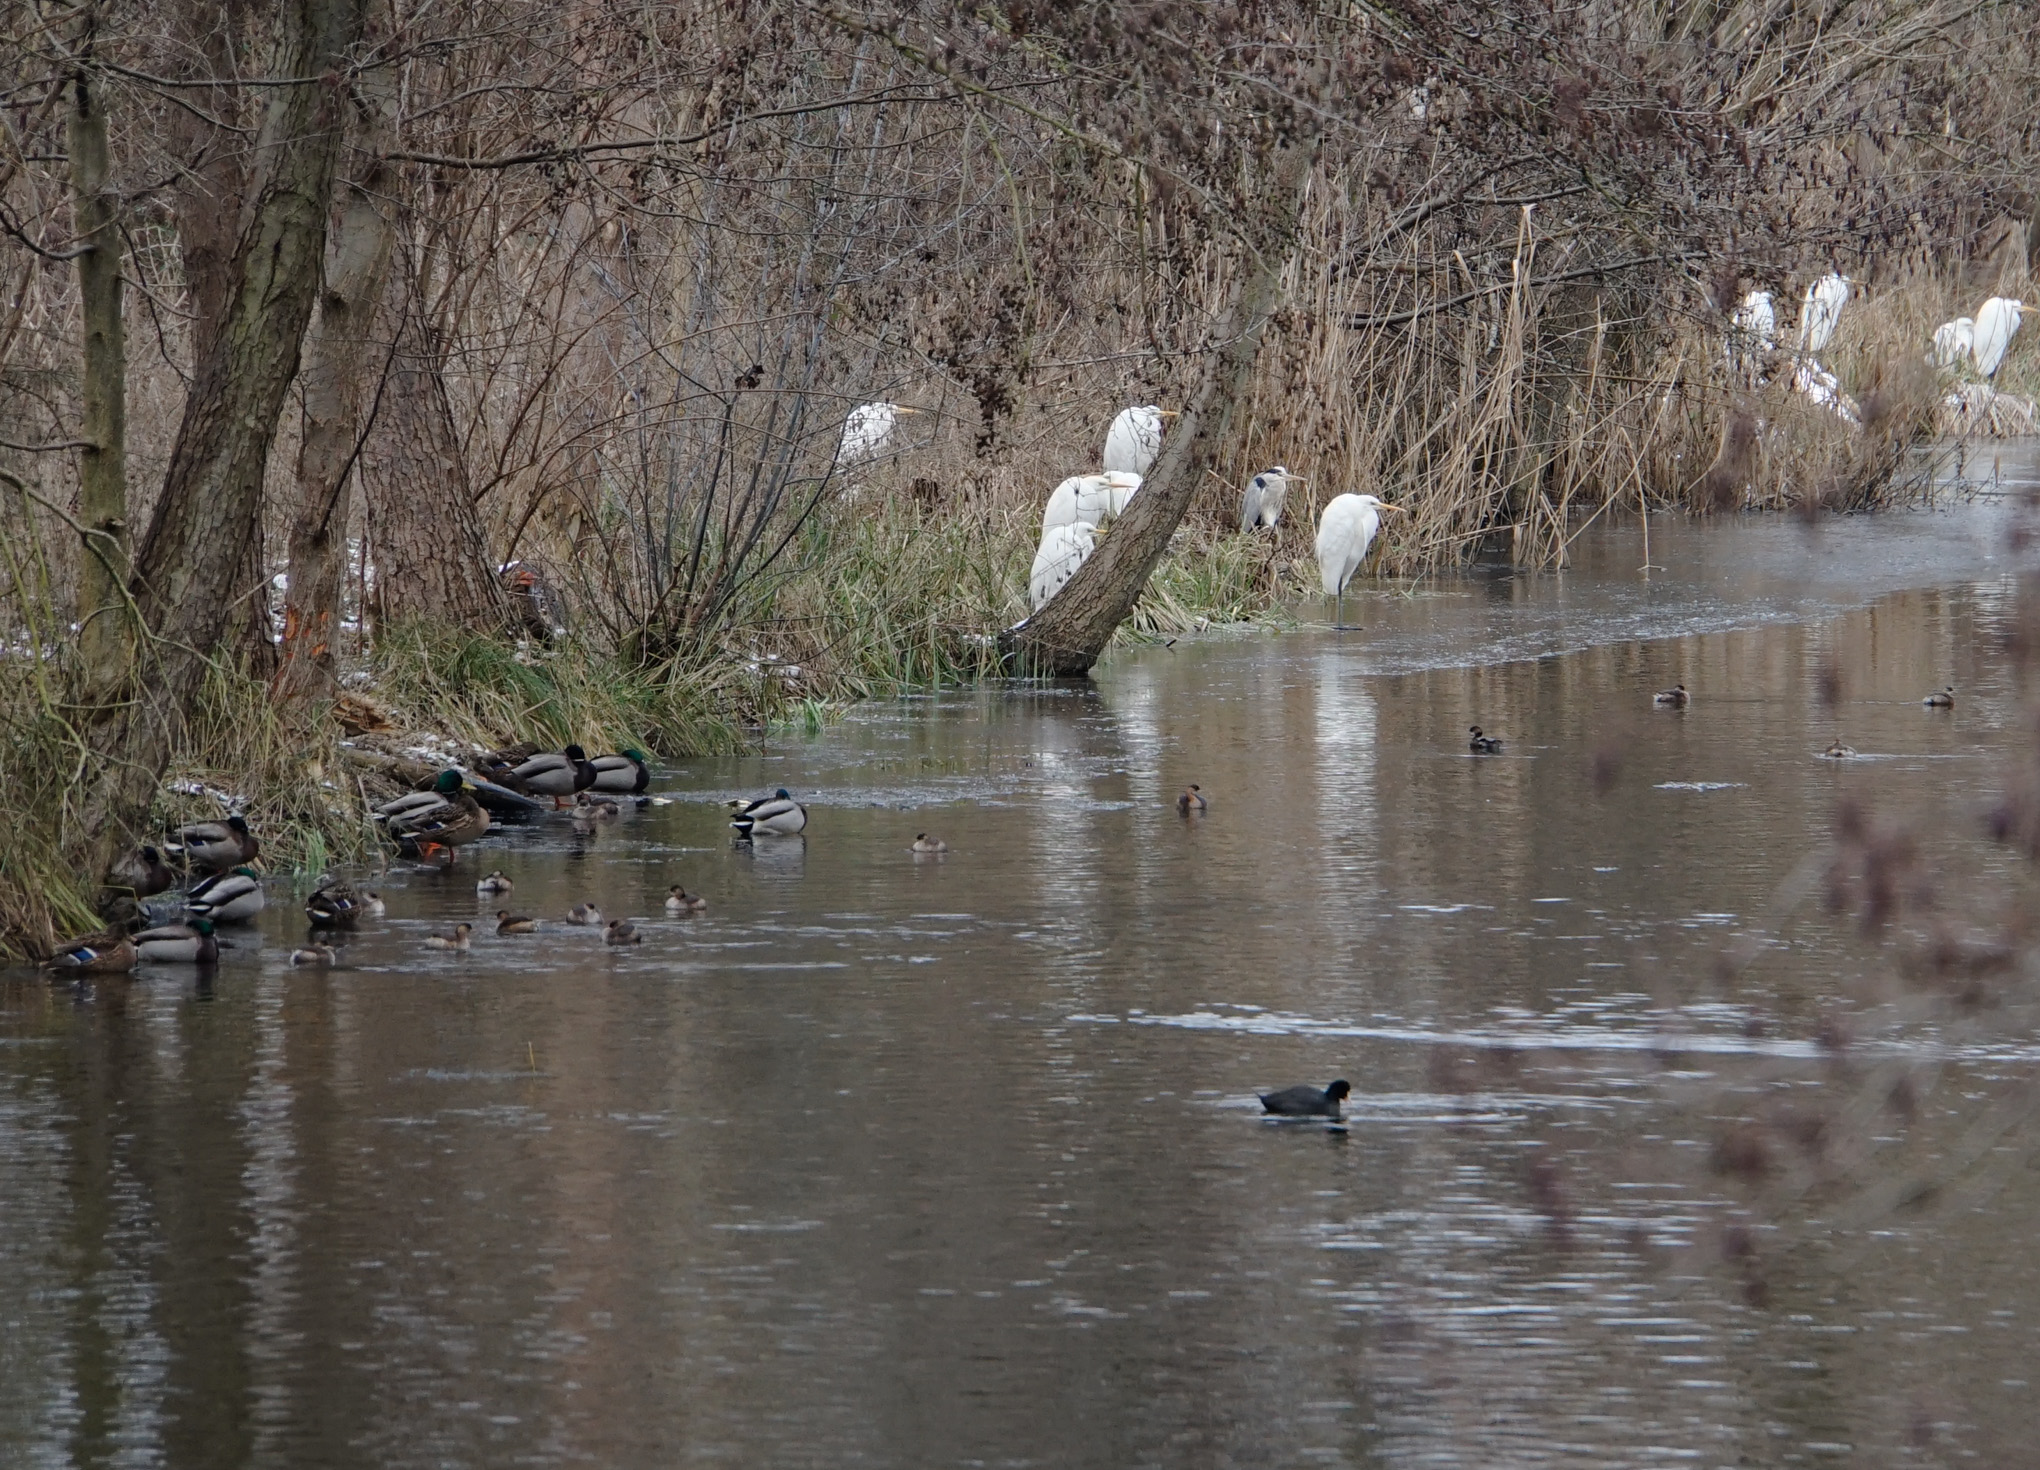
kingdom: Animalia
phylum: Chordata
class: Aves
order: Pelecaniformes
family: Ardeidae
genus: Ardea
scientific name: Ardea alba
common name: Great egret
